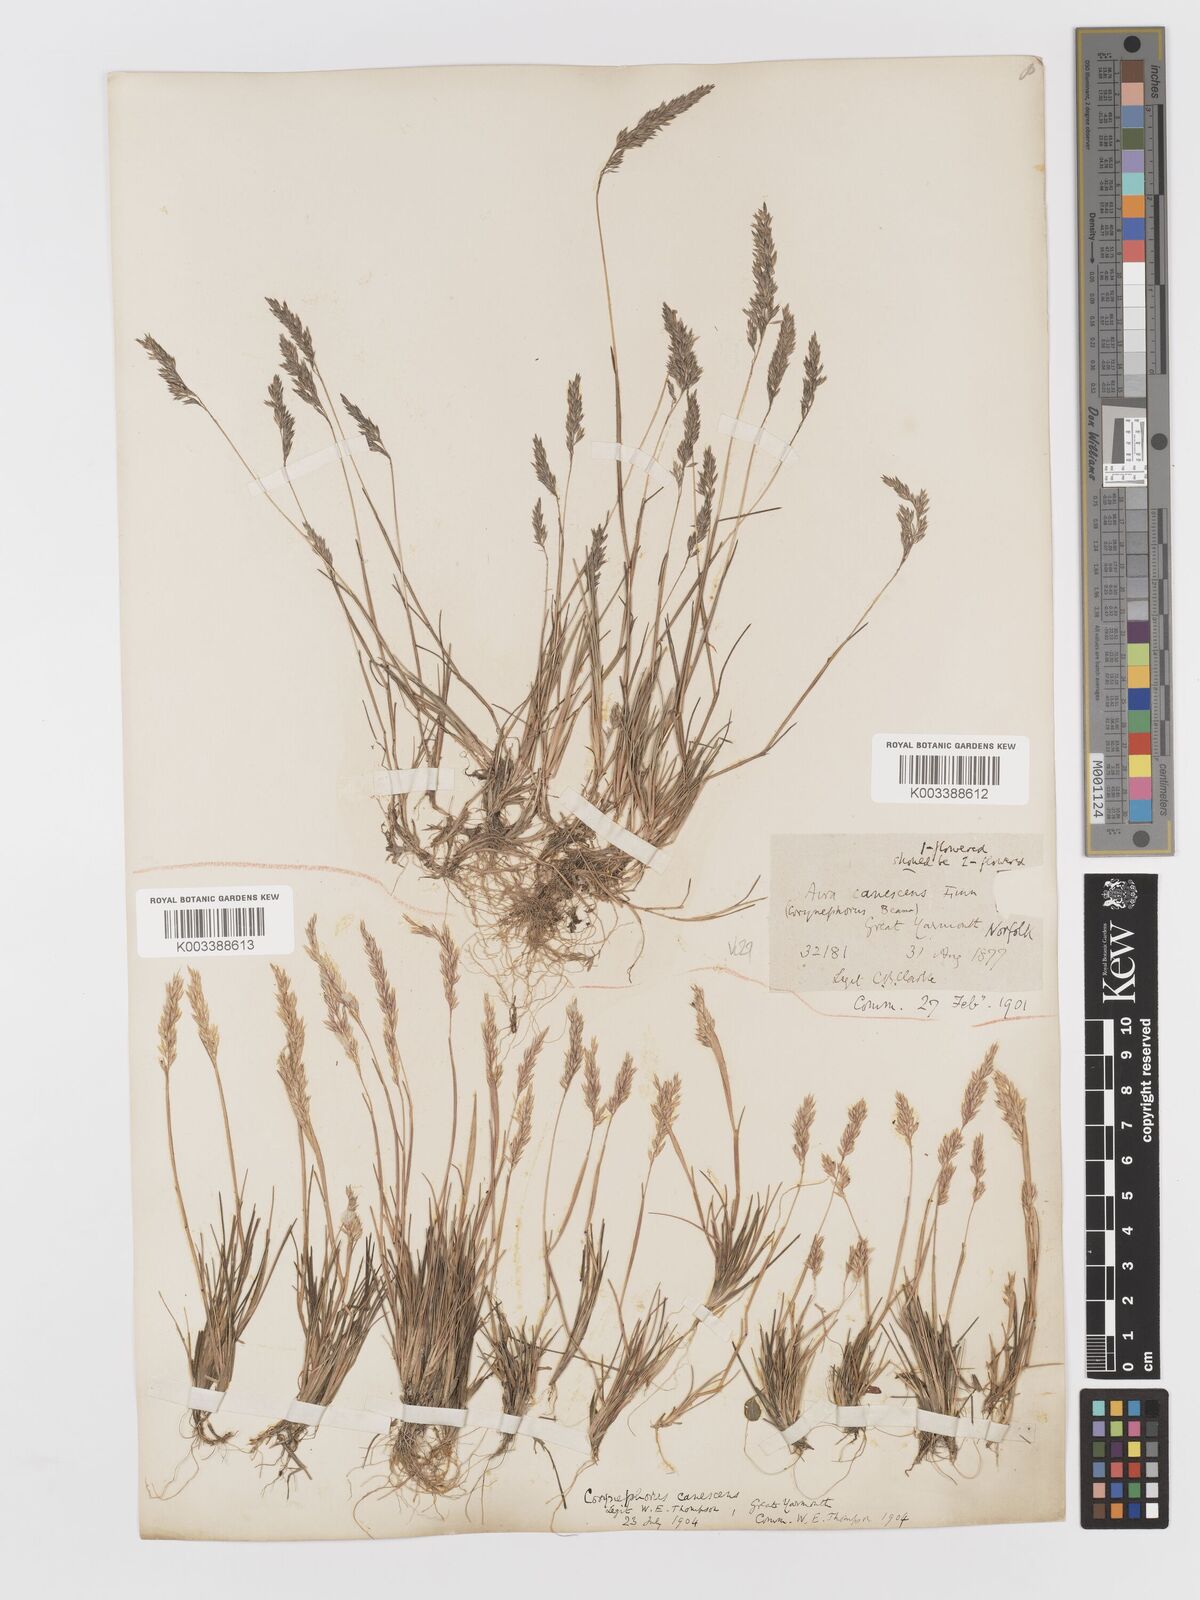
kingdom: Plantae
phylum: Tracheophyta
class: Liliopsida
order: Poales
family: Poaceae
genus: Corynephorus
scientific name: Corynephorus canescens
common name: Grey hair-grass
